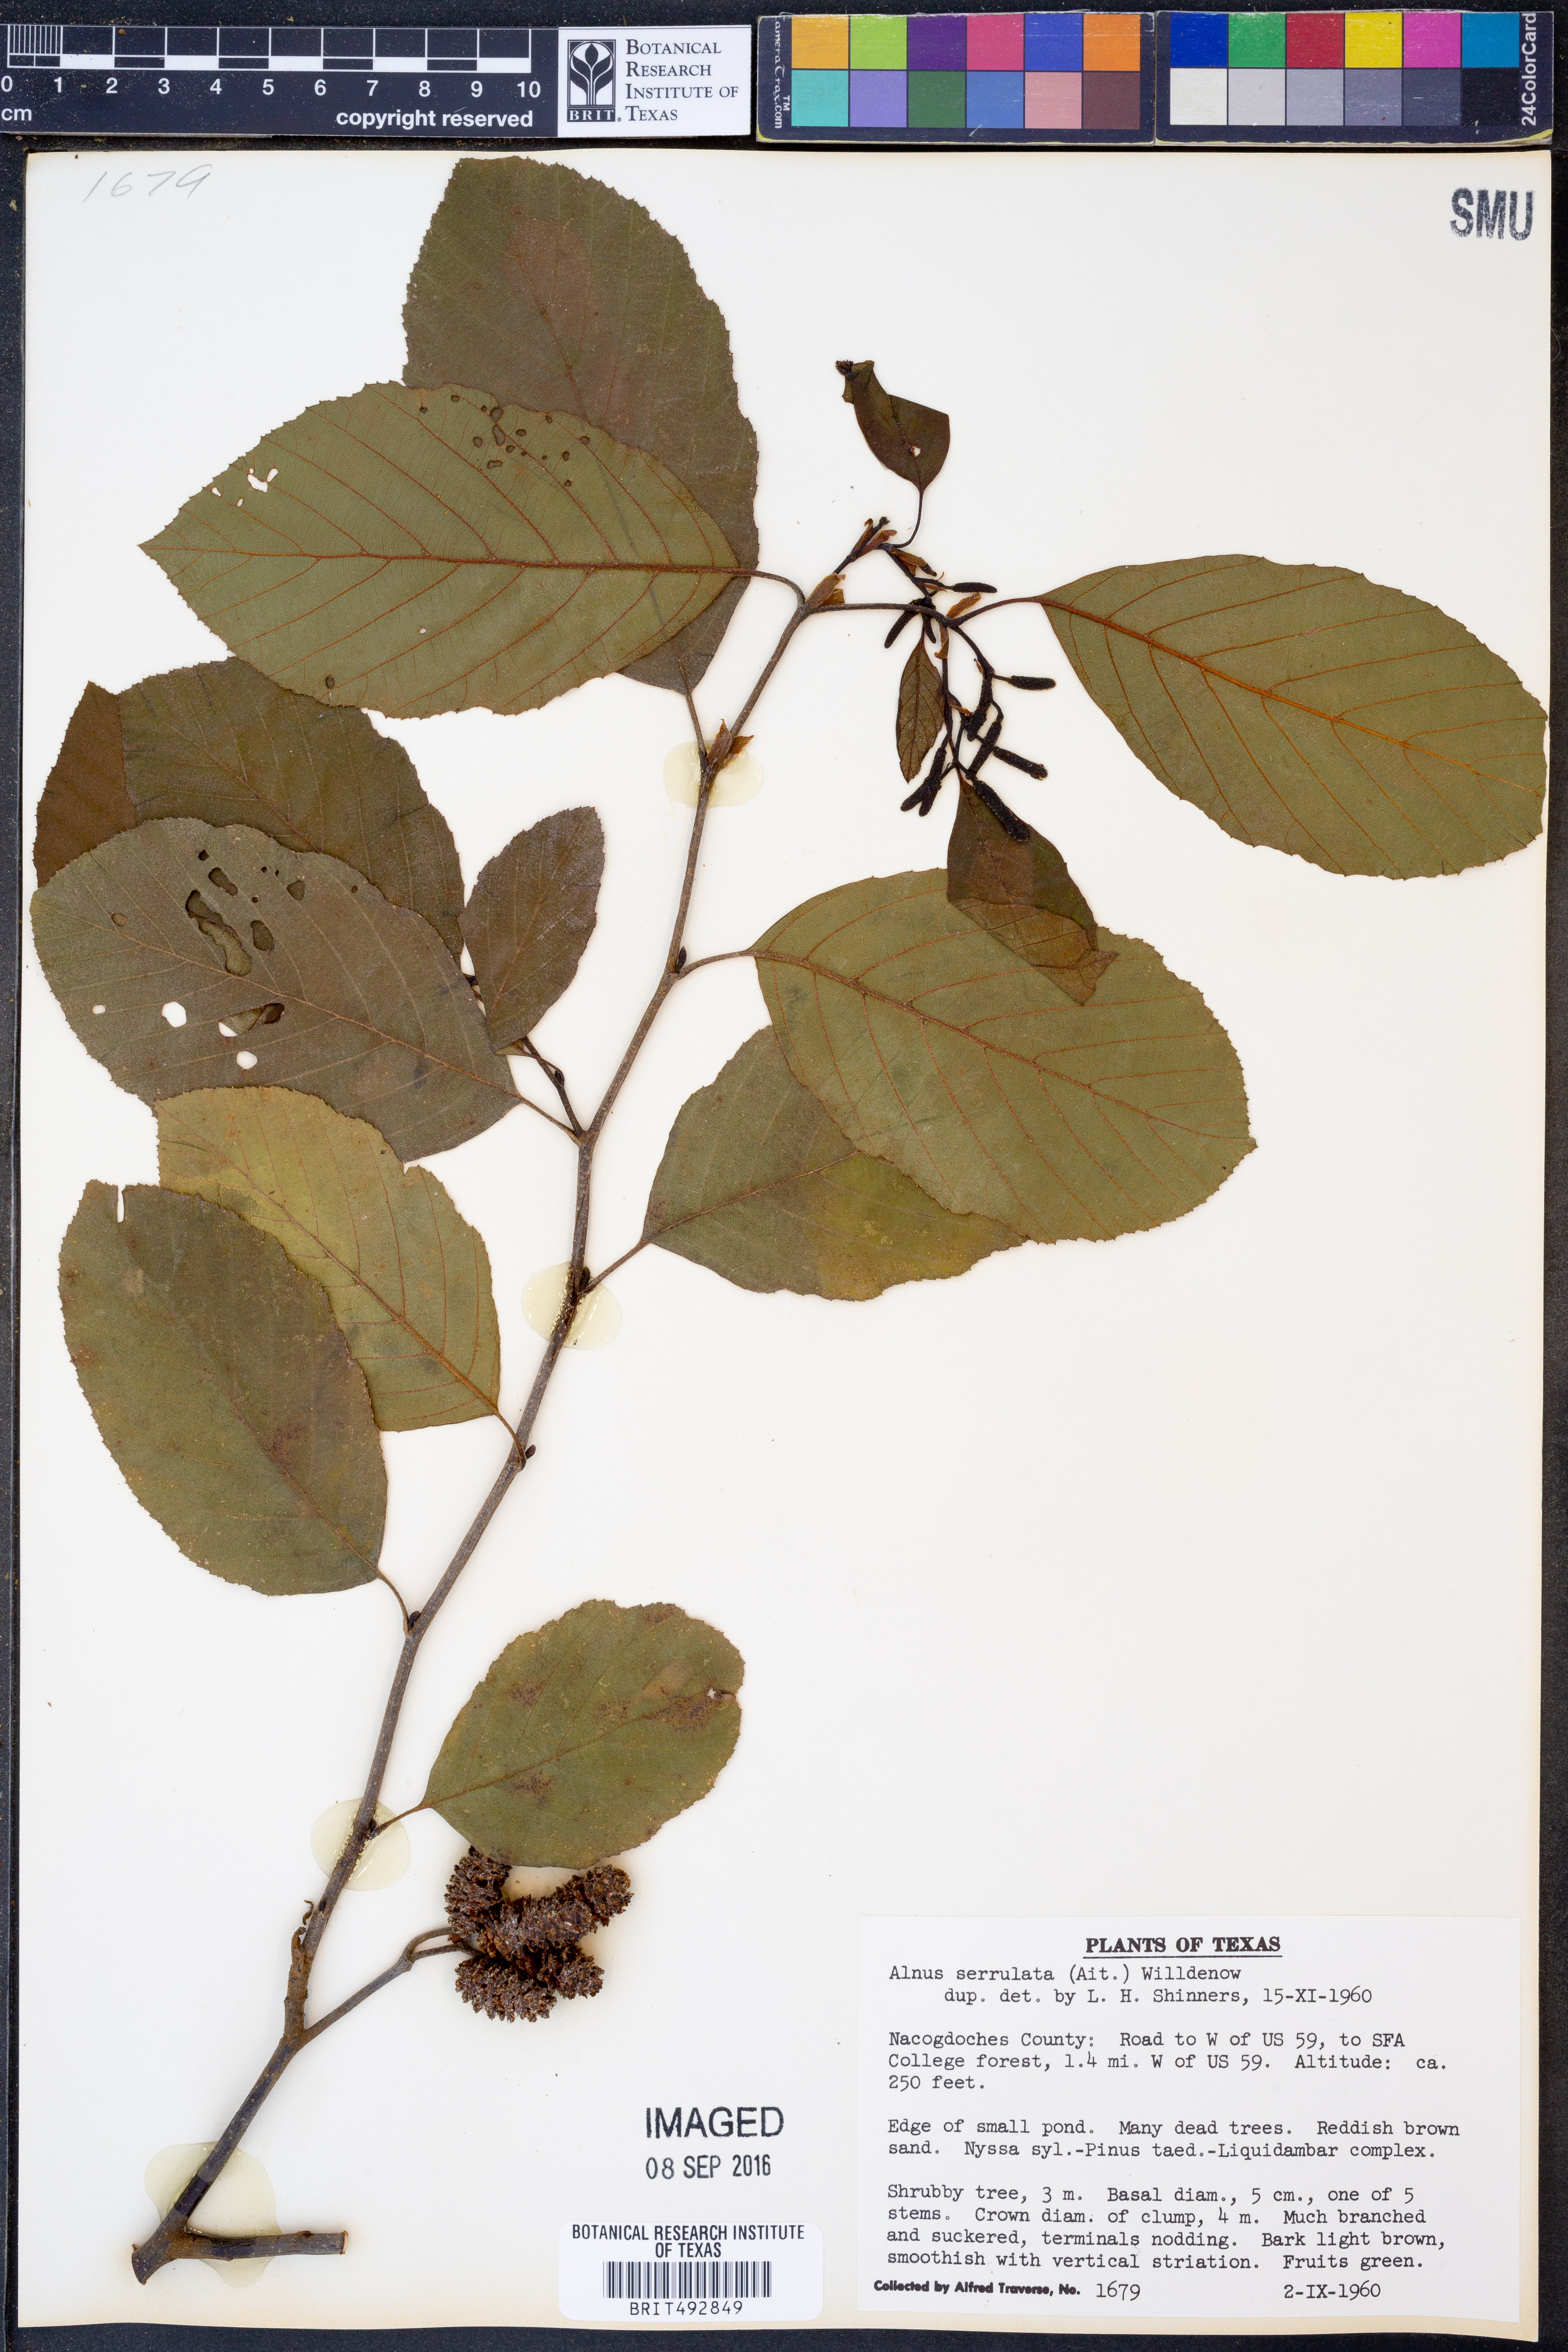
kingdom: Plantae
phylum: Tracheophyta
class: Magnoliopsida
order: Fagales
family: Betulaceae
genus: Alnus
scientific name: Alnus serrulata
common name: Hazel alder
